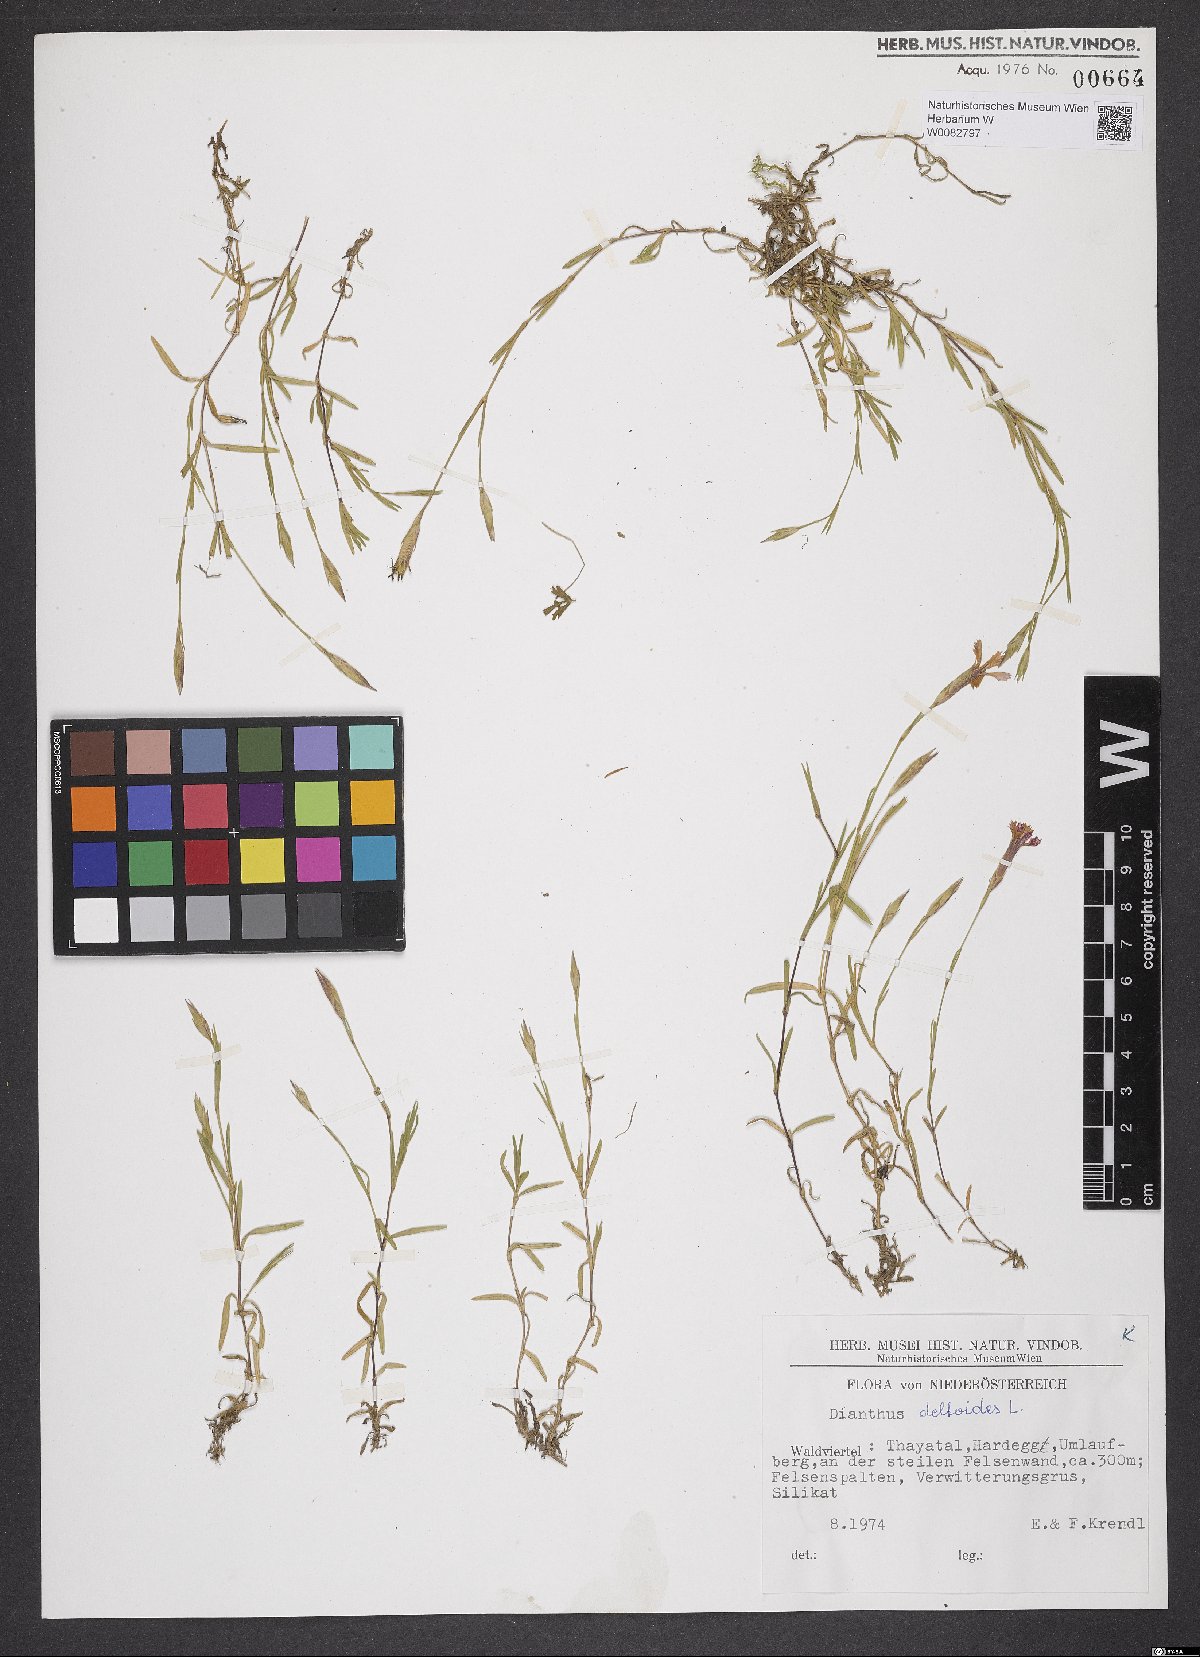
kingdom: Plantae
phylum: Tracheophyta
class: Magnoliopsida
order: Caryophyllales
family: Caryophyllaceae
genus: Dianthus
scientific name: Dianthus deltoides
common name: Maiden pink
